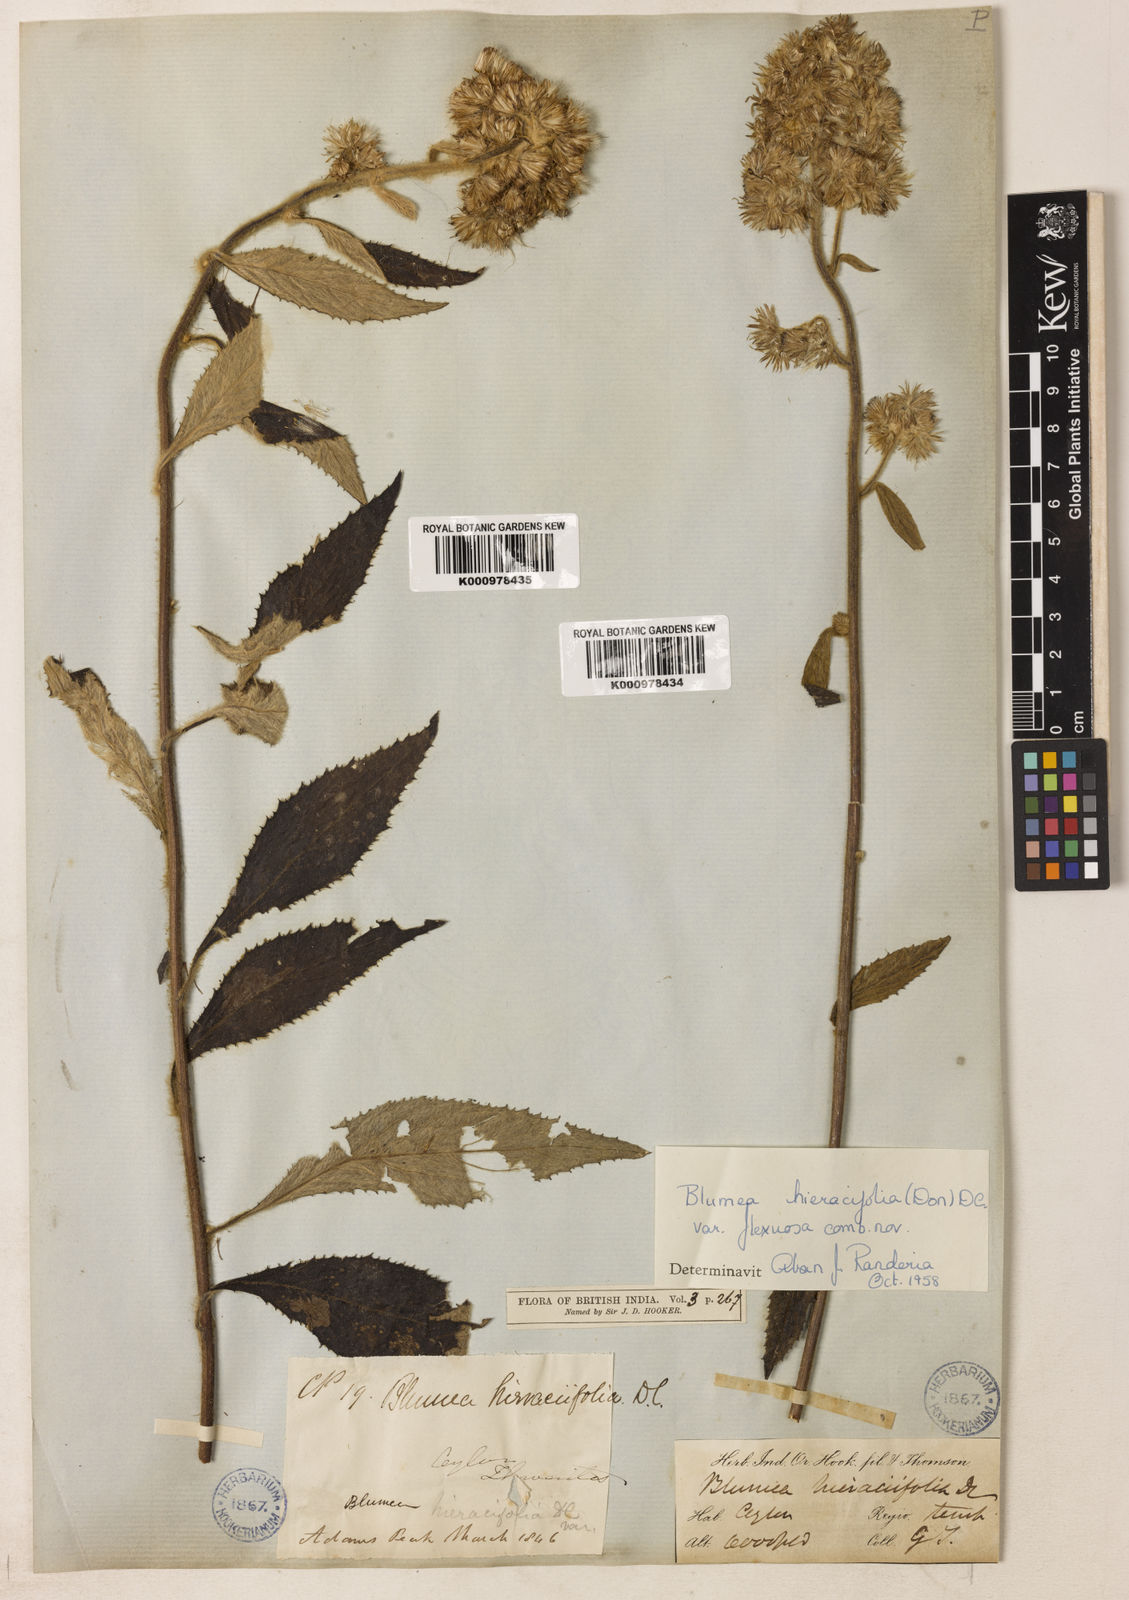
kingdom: Plantae
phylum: Tracheophyta
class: Magnoliopsida
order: Asterales
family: Asteraceae
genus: Blumea
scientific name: Blumea hieraciifolia
